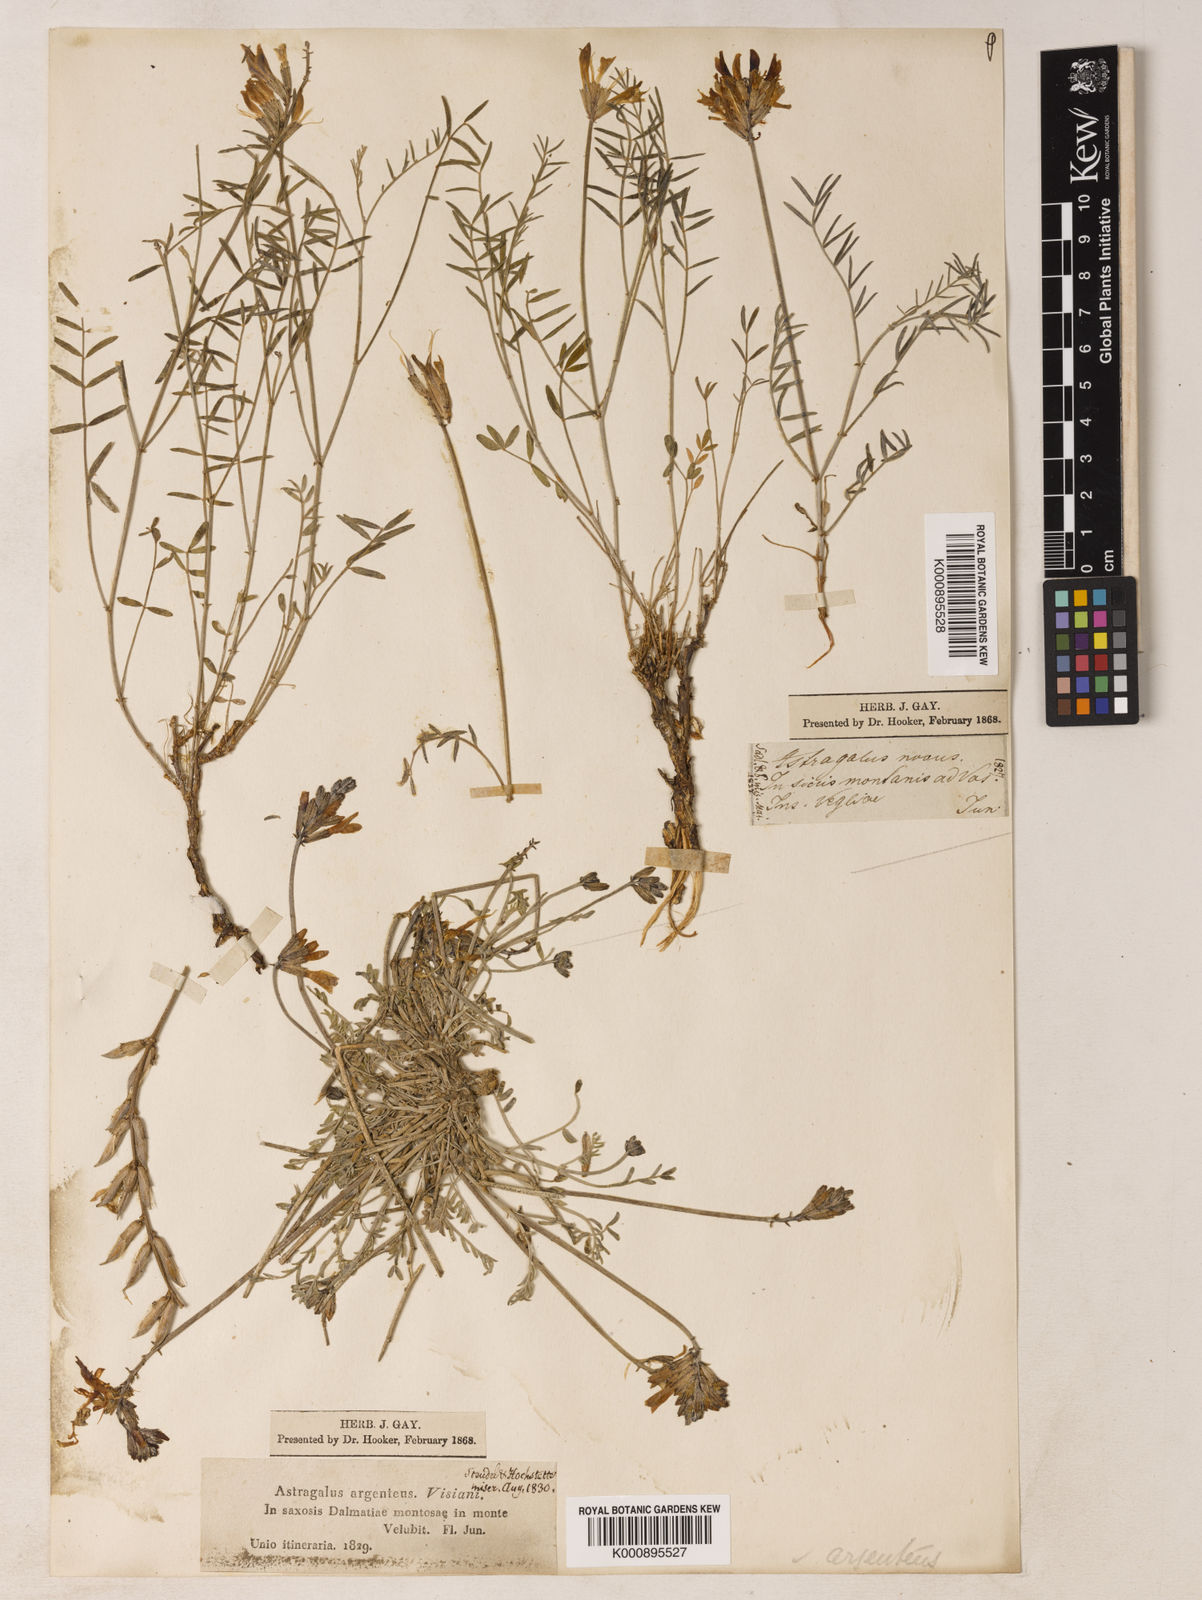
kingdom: Plantae
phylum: Tracheophyta
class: Magnoliopsida
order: Fabales
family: Fabaceae
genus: Astragalus
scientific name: Astragalus
